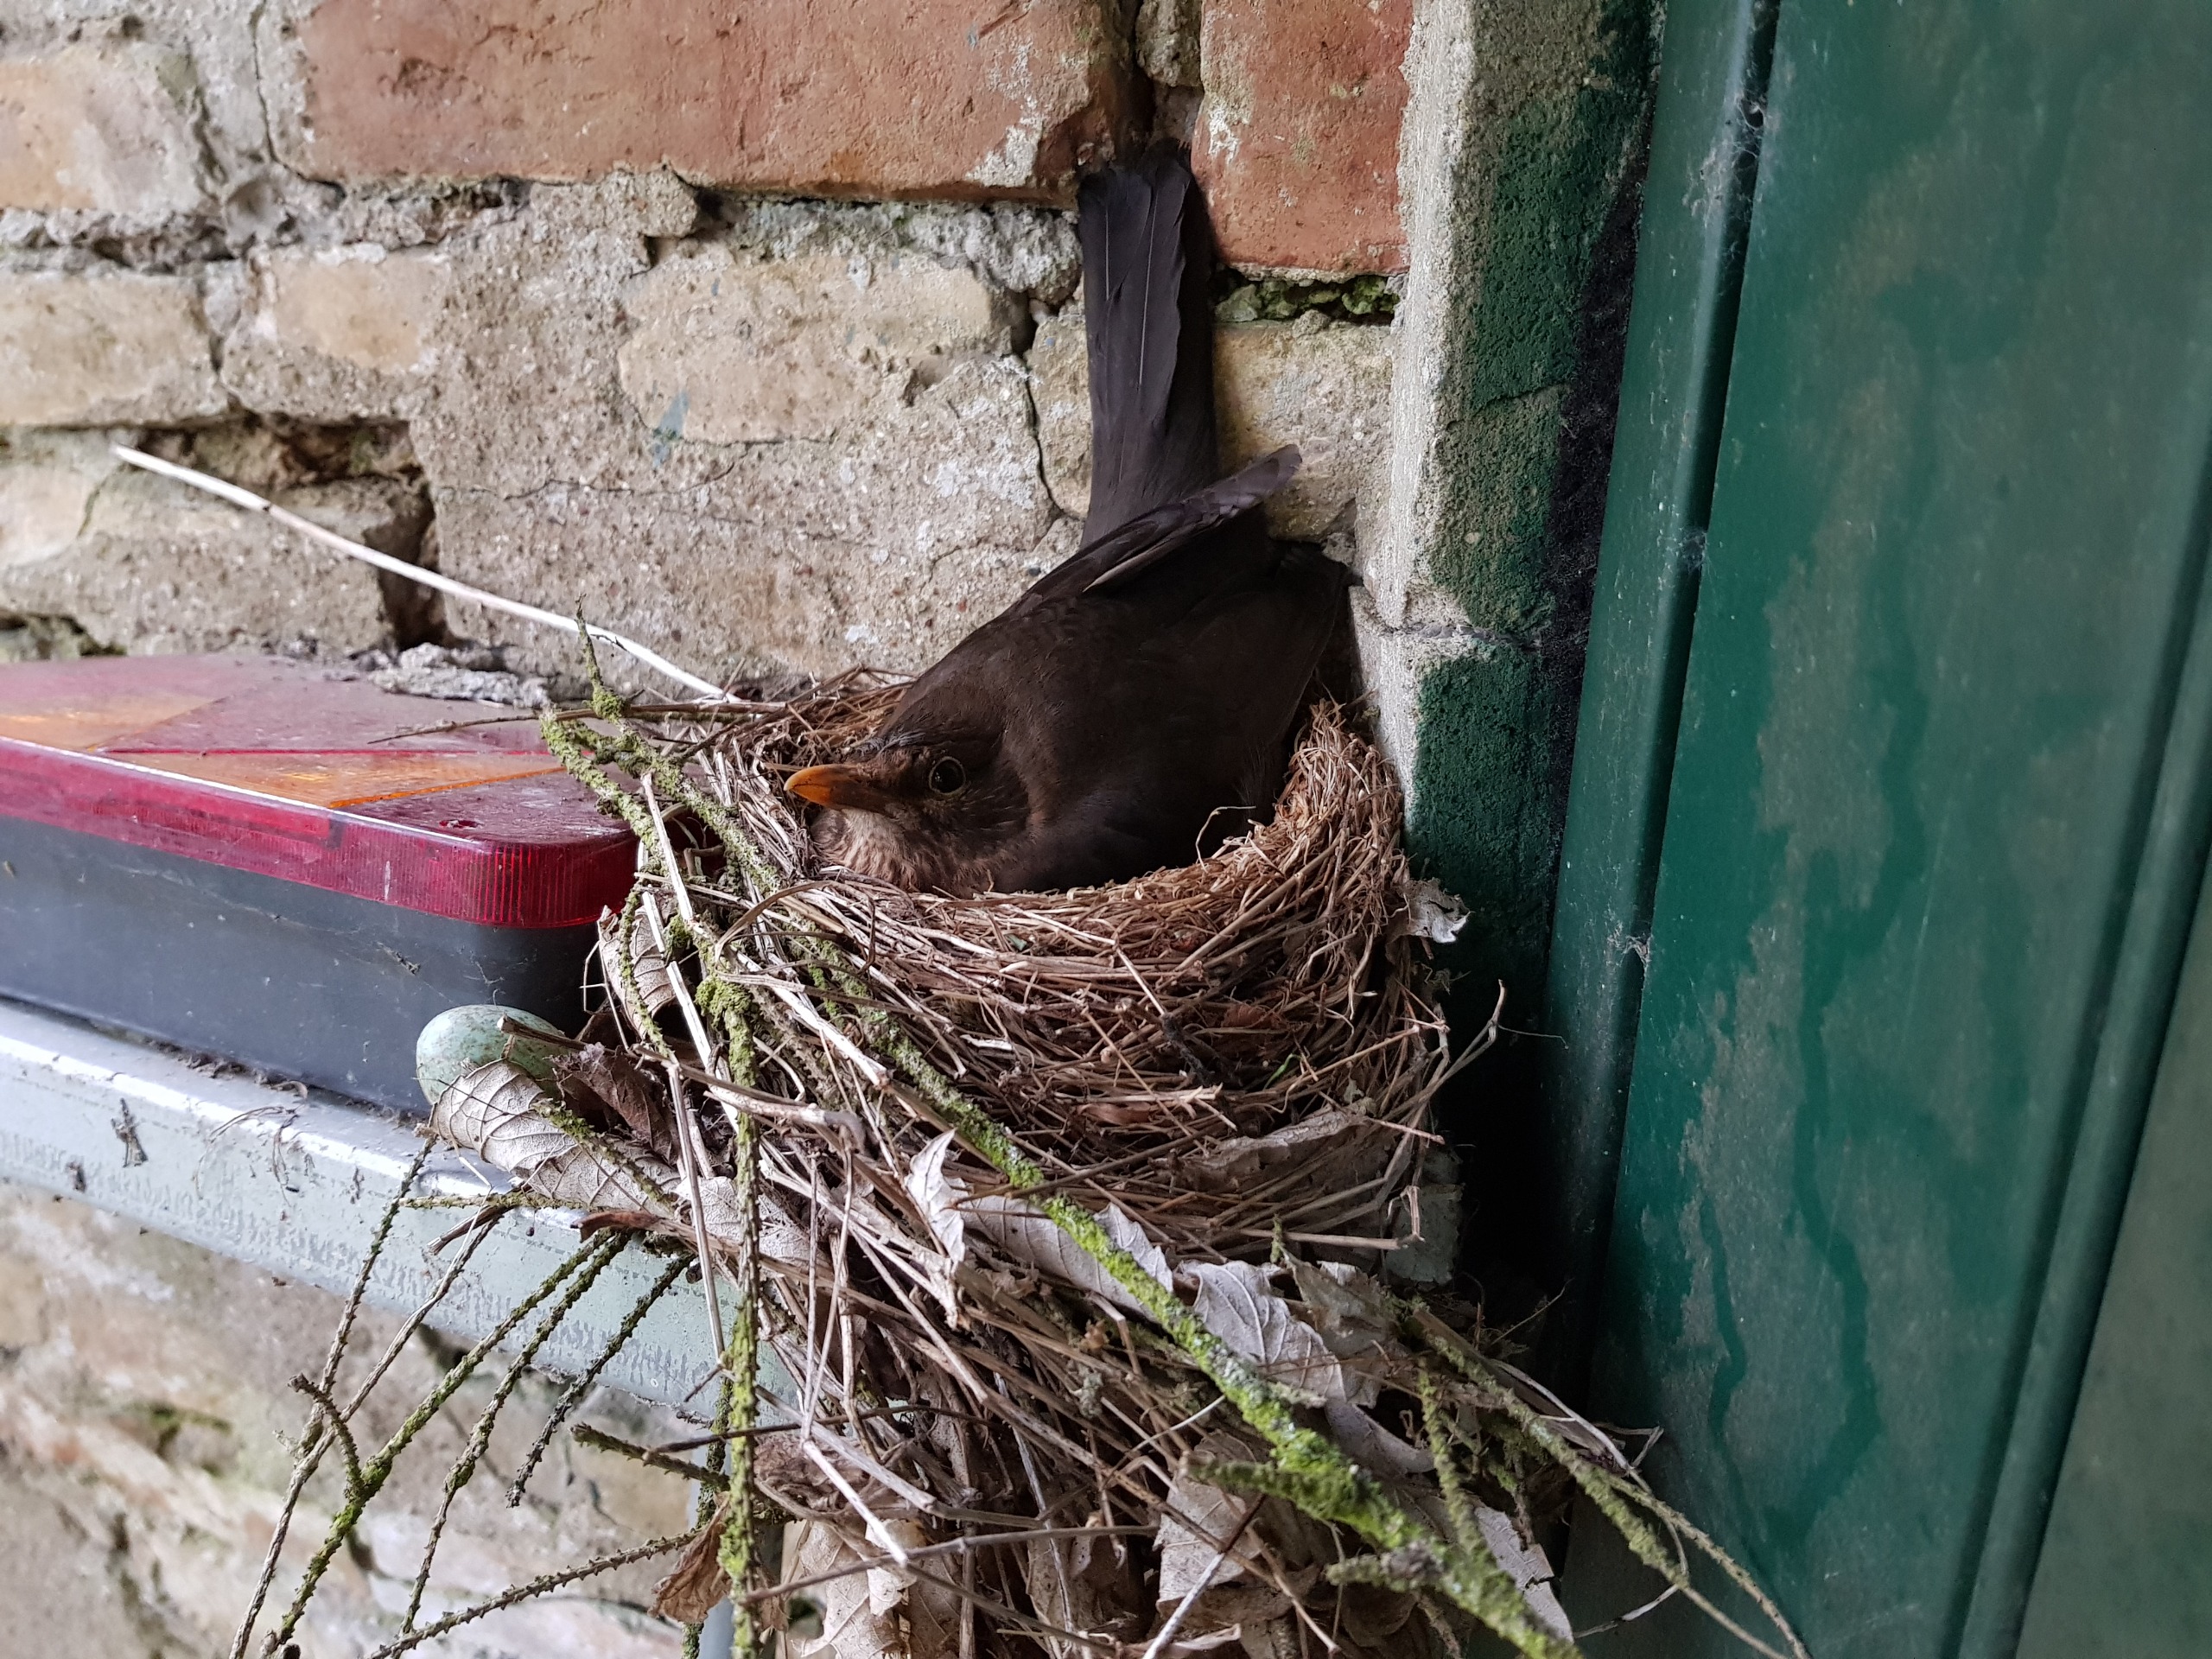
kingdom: Animalia
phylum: Chordata
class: Aves
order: Passeriformes
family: Turdidae
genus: Turdus
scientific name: Turdus merula
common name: Solsort
